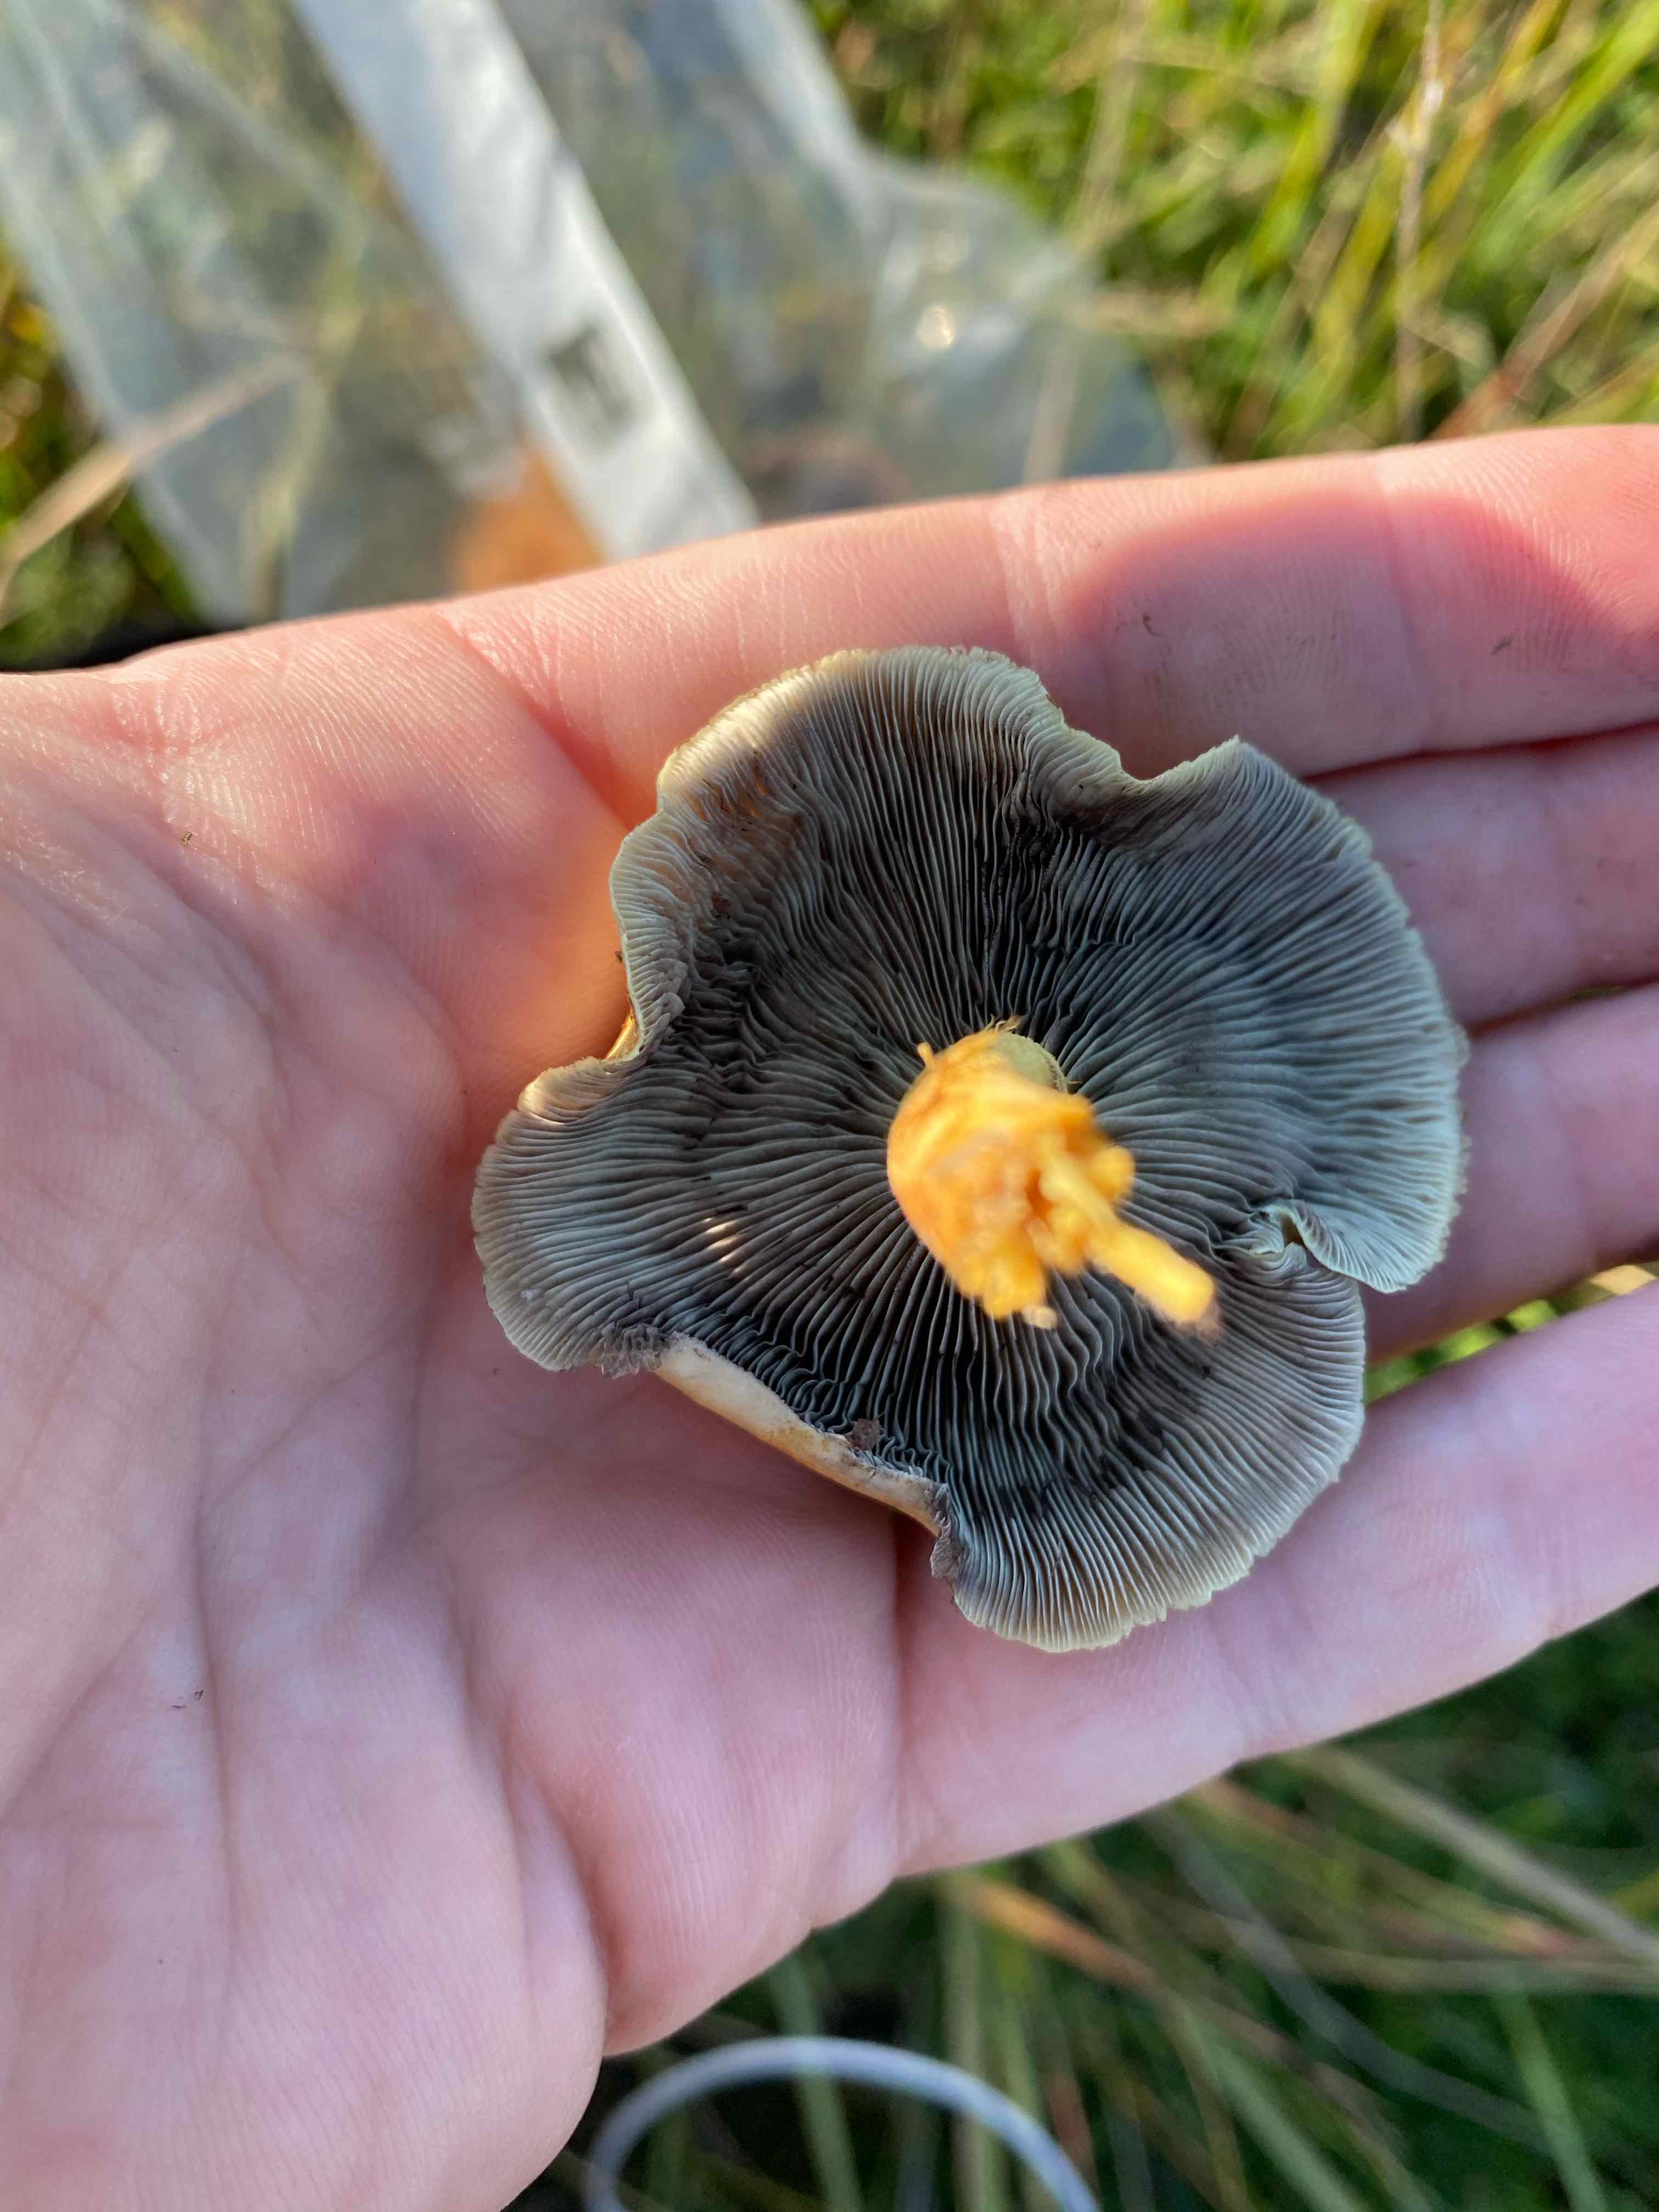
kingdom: Fungi
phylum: Basidiomycota
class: Agaricomycetes
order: Agaricales
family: Strophariaceae
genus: Hypholoma
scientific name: Hypholoma fasciculare
